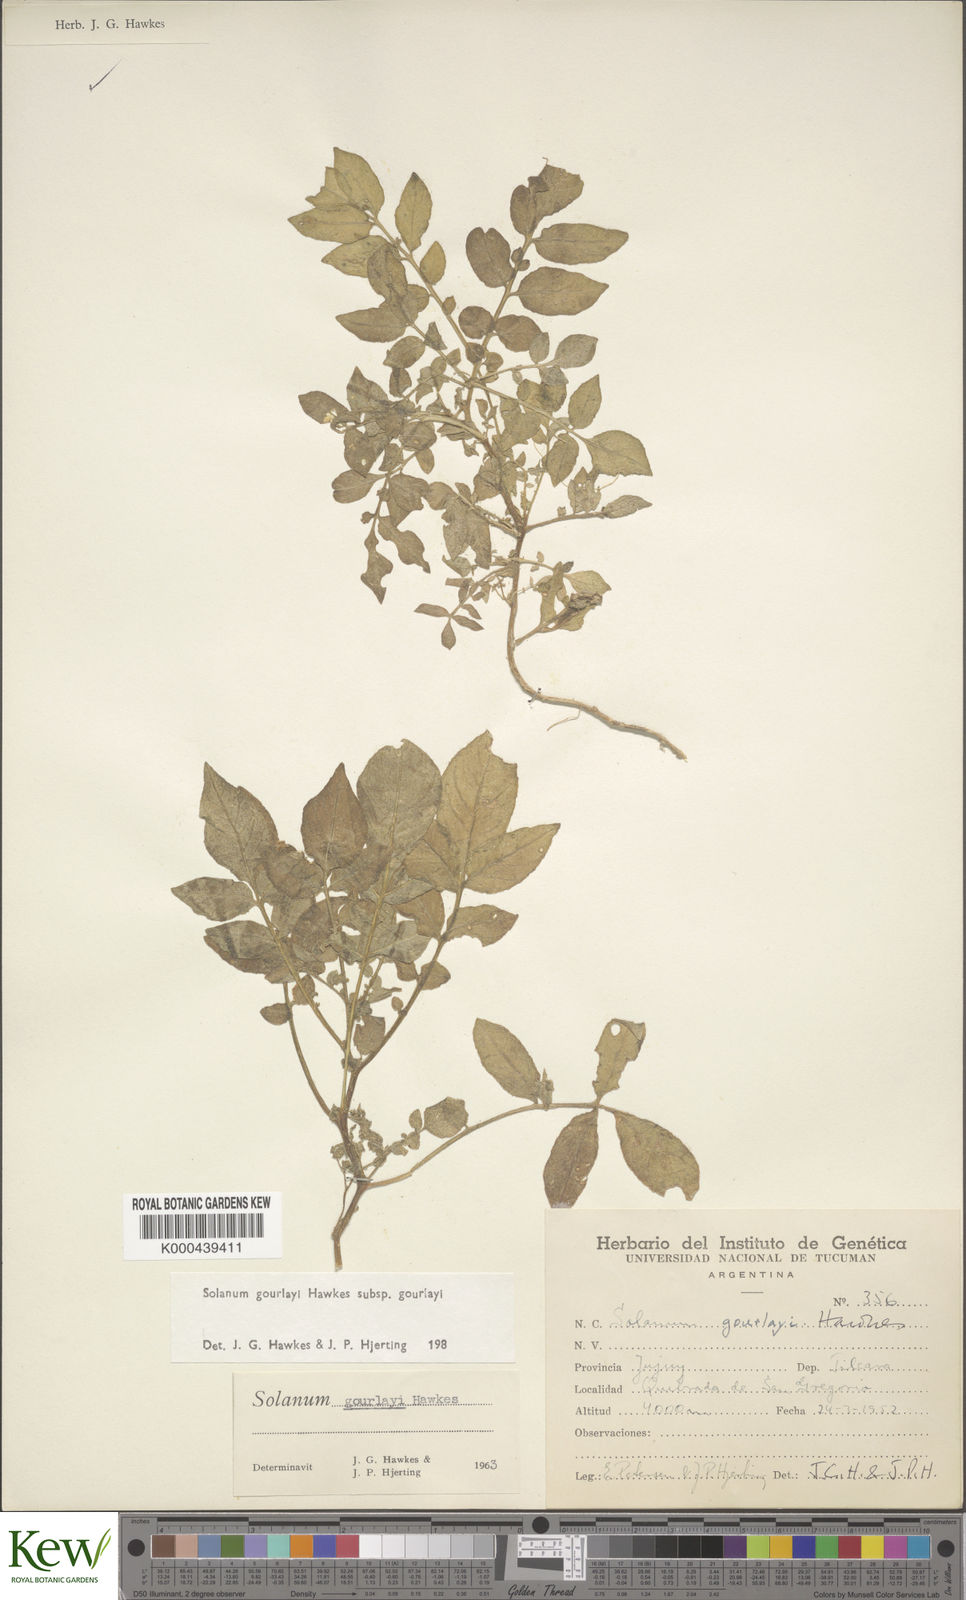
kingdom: Plantae
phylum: Tracheophyta
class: Magnoliopsida
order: Solanales
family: Solanaceae
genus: Solanum
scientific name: Solanum brevicaule
